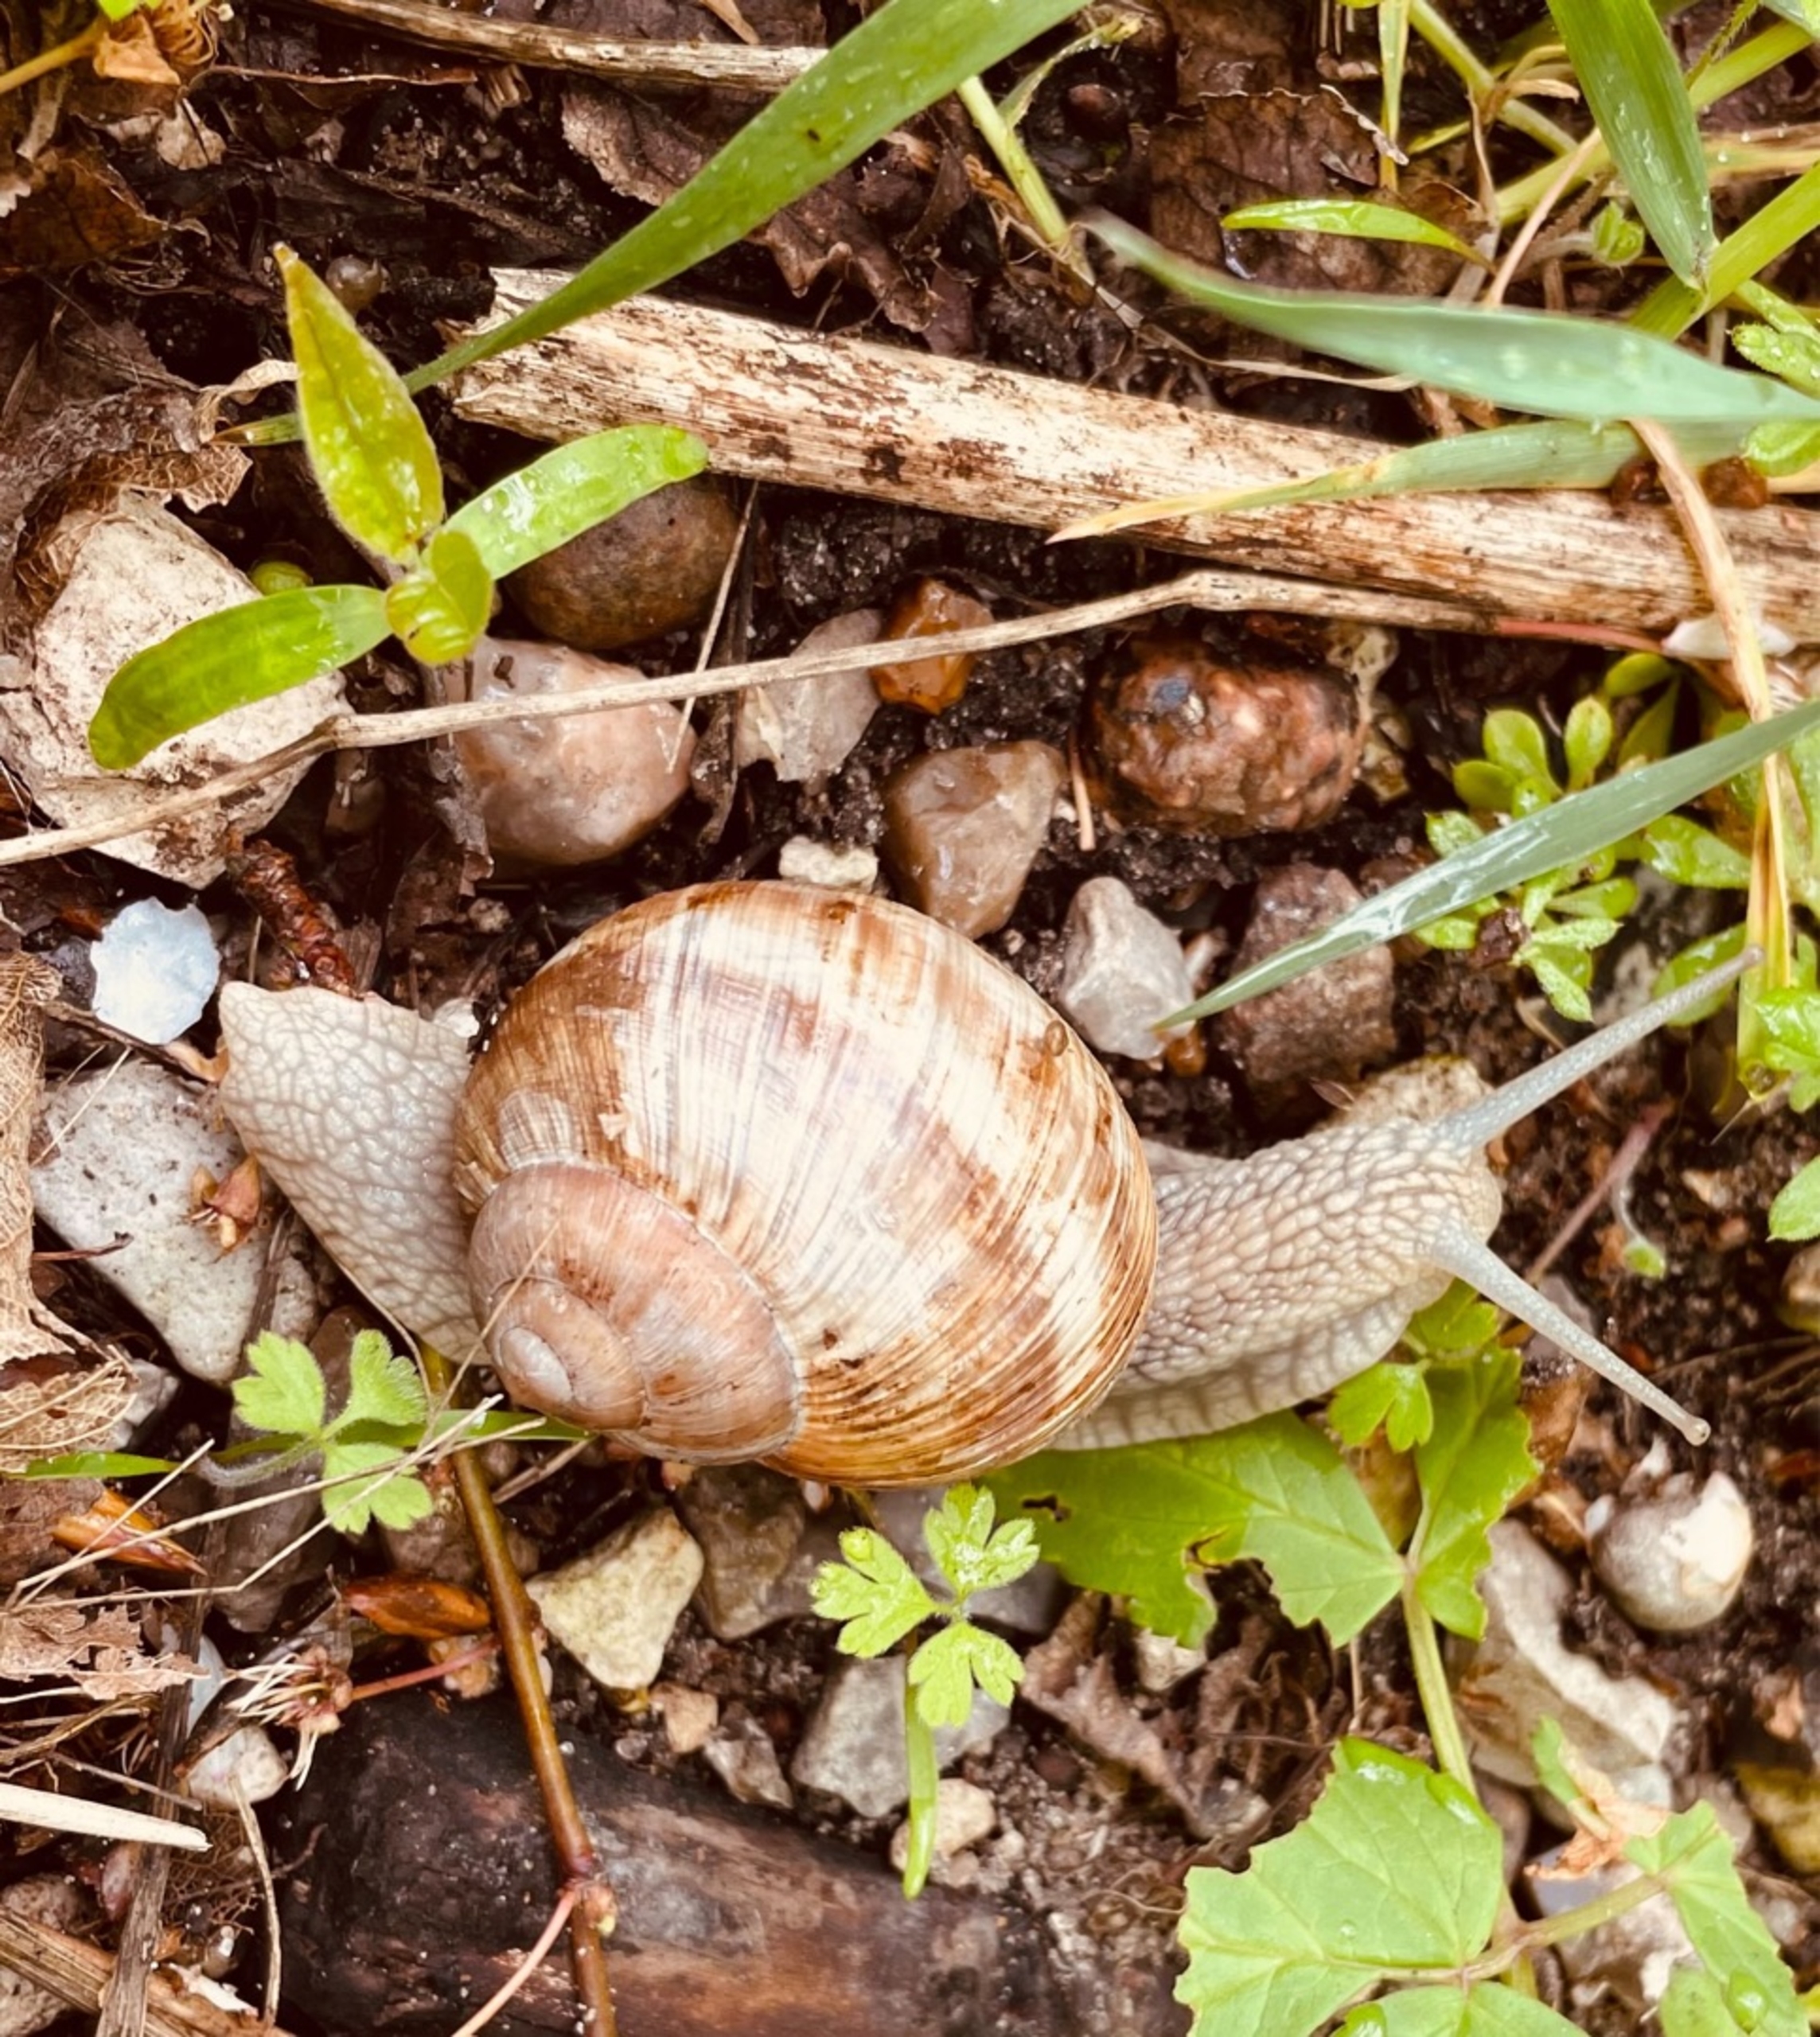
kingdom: Animalia
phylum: Mollusca
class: Gastropoda
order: Stylommatophora
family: Helicidae
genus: Helix
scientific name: Helix pomatia
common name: Vinbjergsnegl
